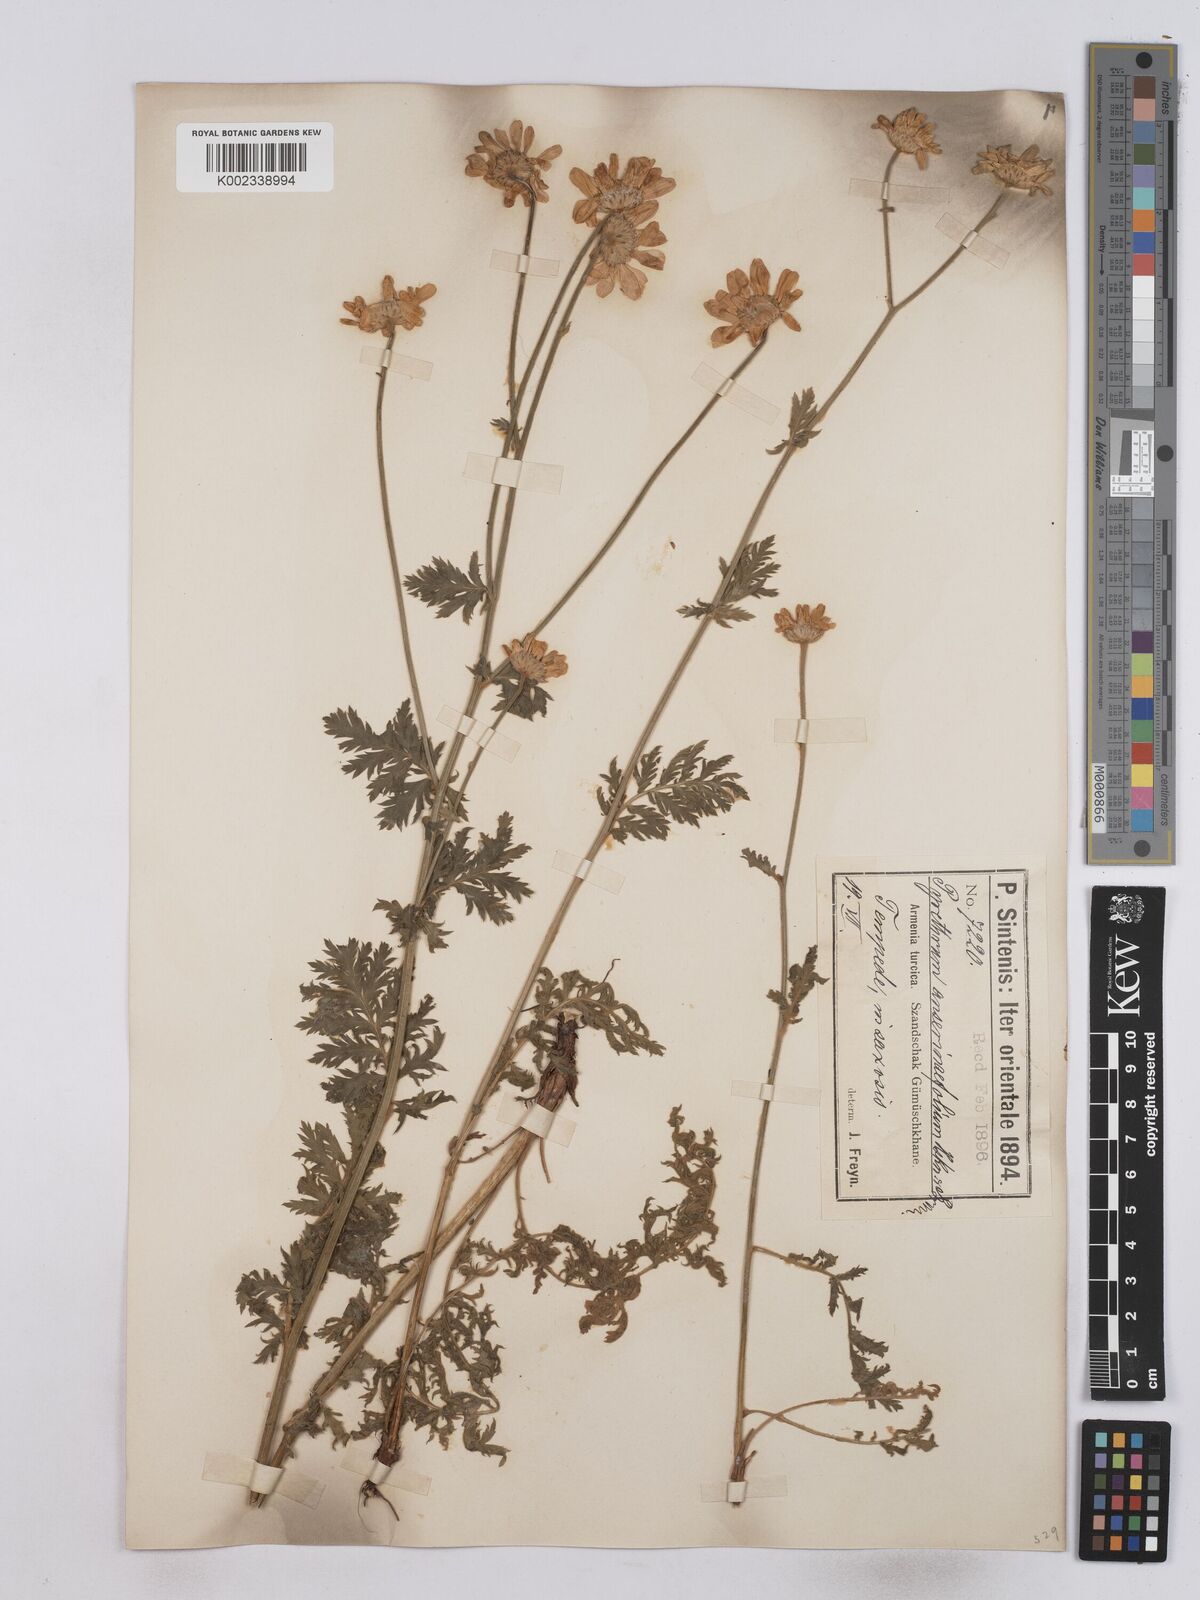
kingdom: Plantae
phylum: Tracheophyta
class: Magnoliopsida
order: Asterales
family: Asteraceae
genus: Tanacetum
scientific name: Tanacetum
